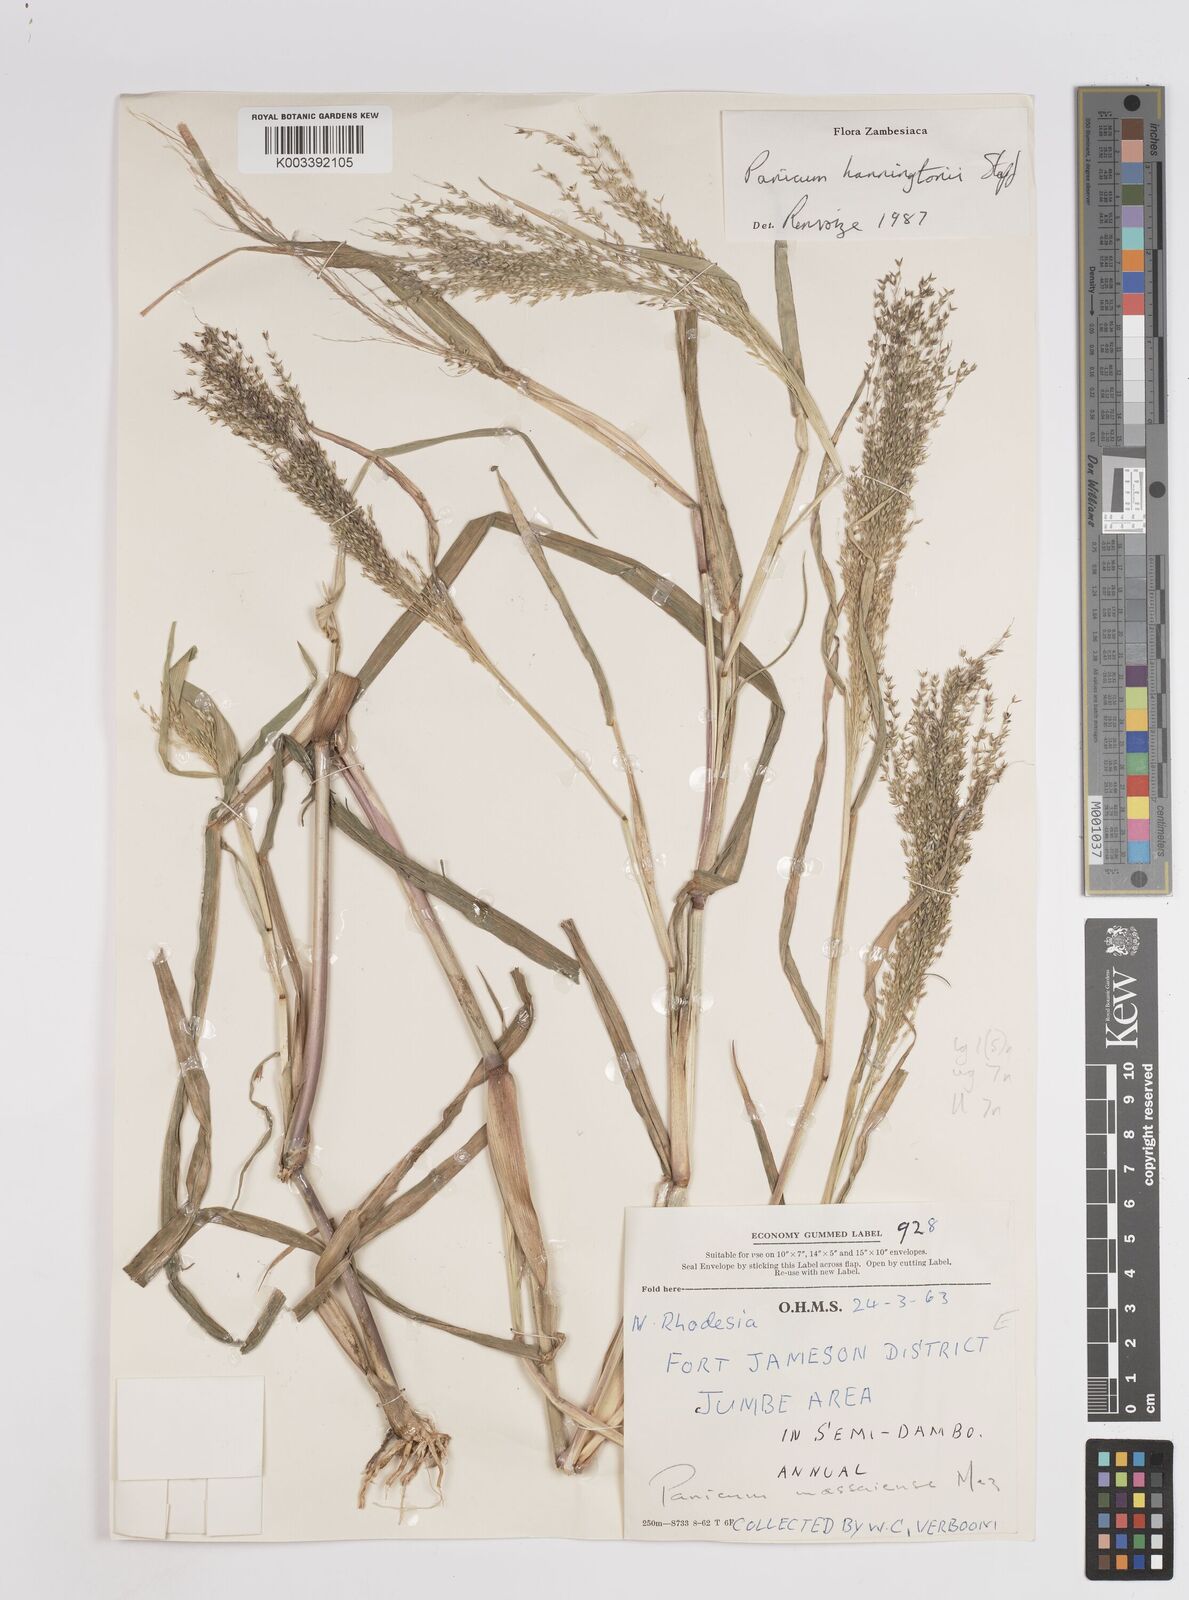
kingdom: Plantae
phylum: Tracheophyta
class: Liliopsida
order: Poales
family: Poaceae
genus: Panicum
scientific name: Panicum hanningtonii
